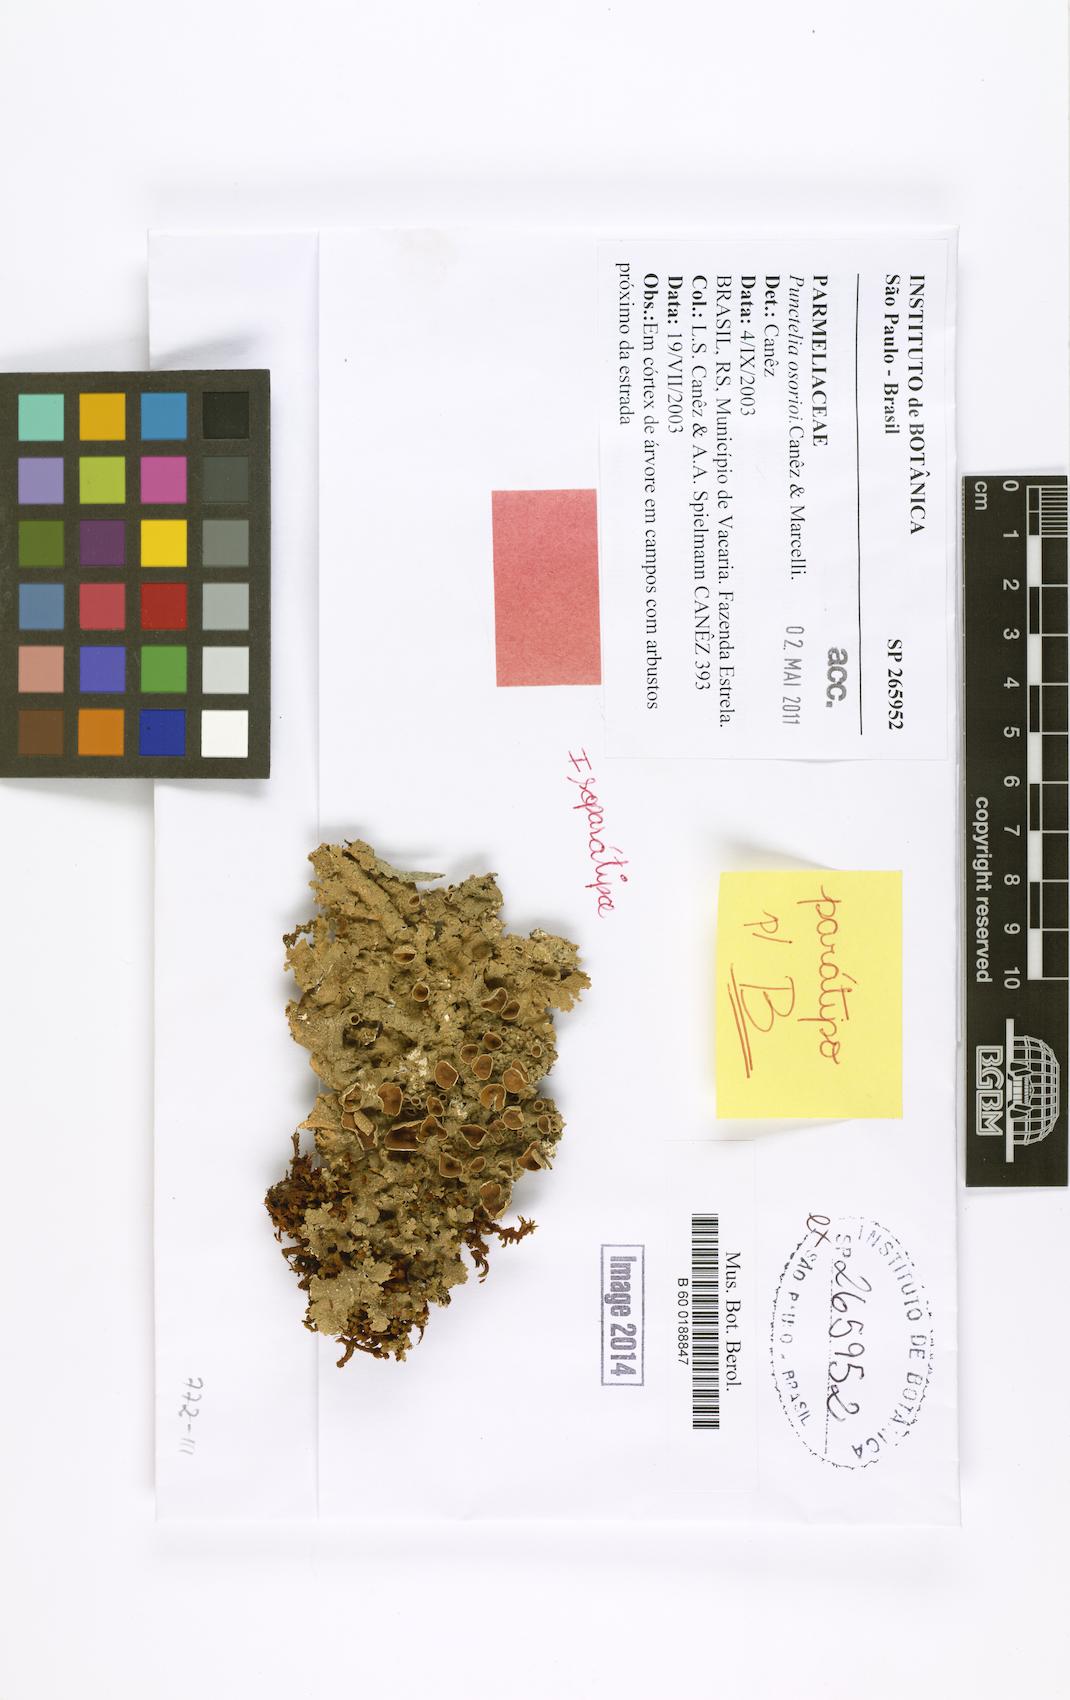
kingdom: Fungi
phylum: Ascomycota
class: Lecanoromycetes
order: Lecanorales
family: Parmeliaceae
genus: Punctelia
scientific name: Punctelia osorioi
